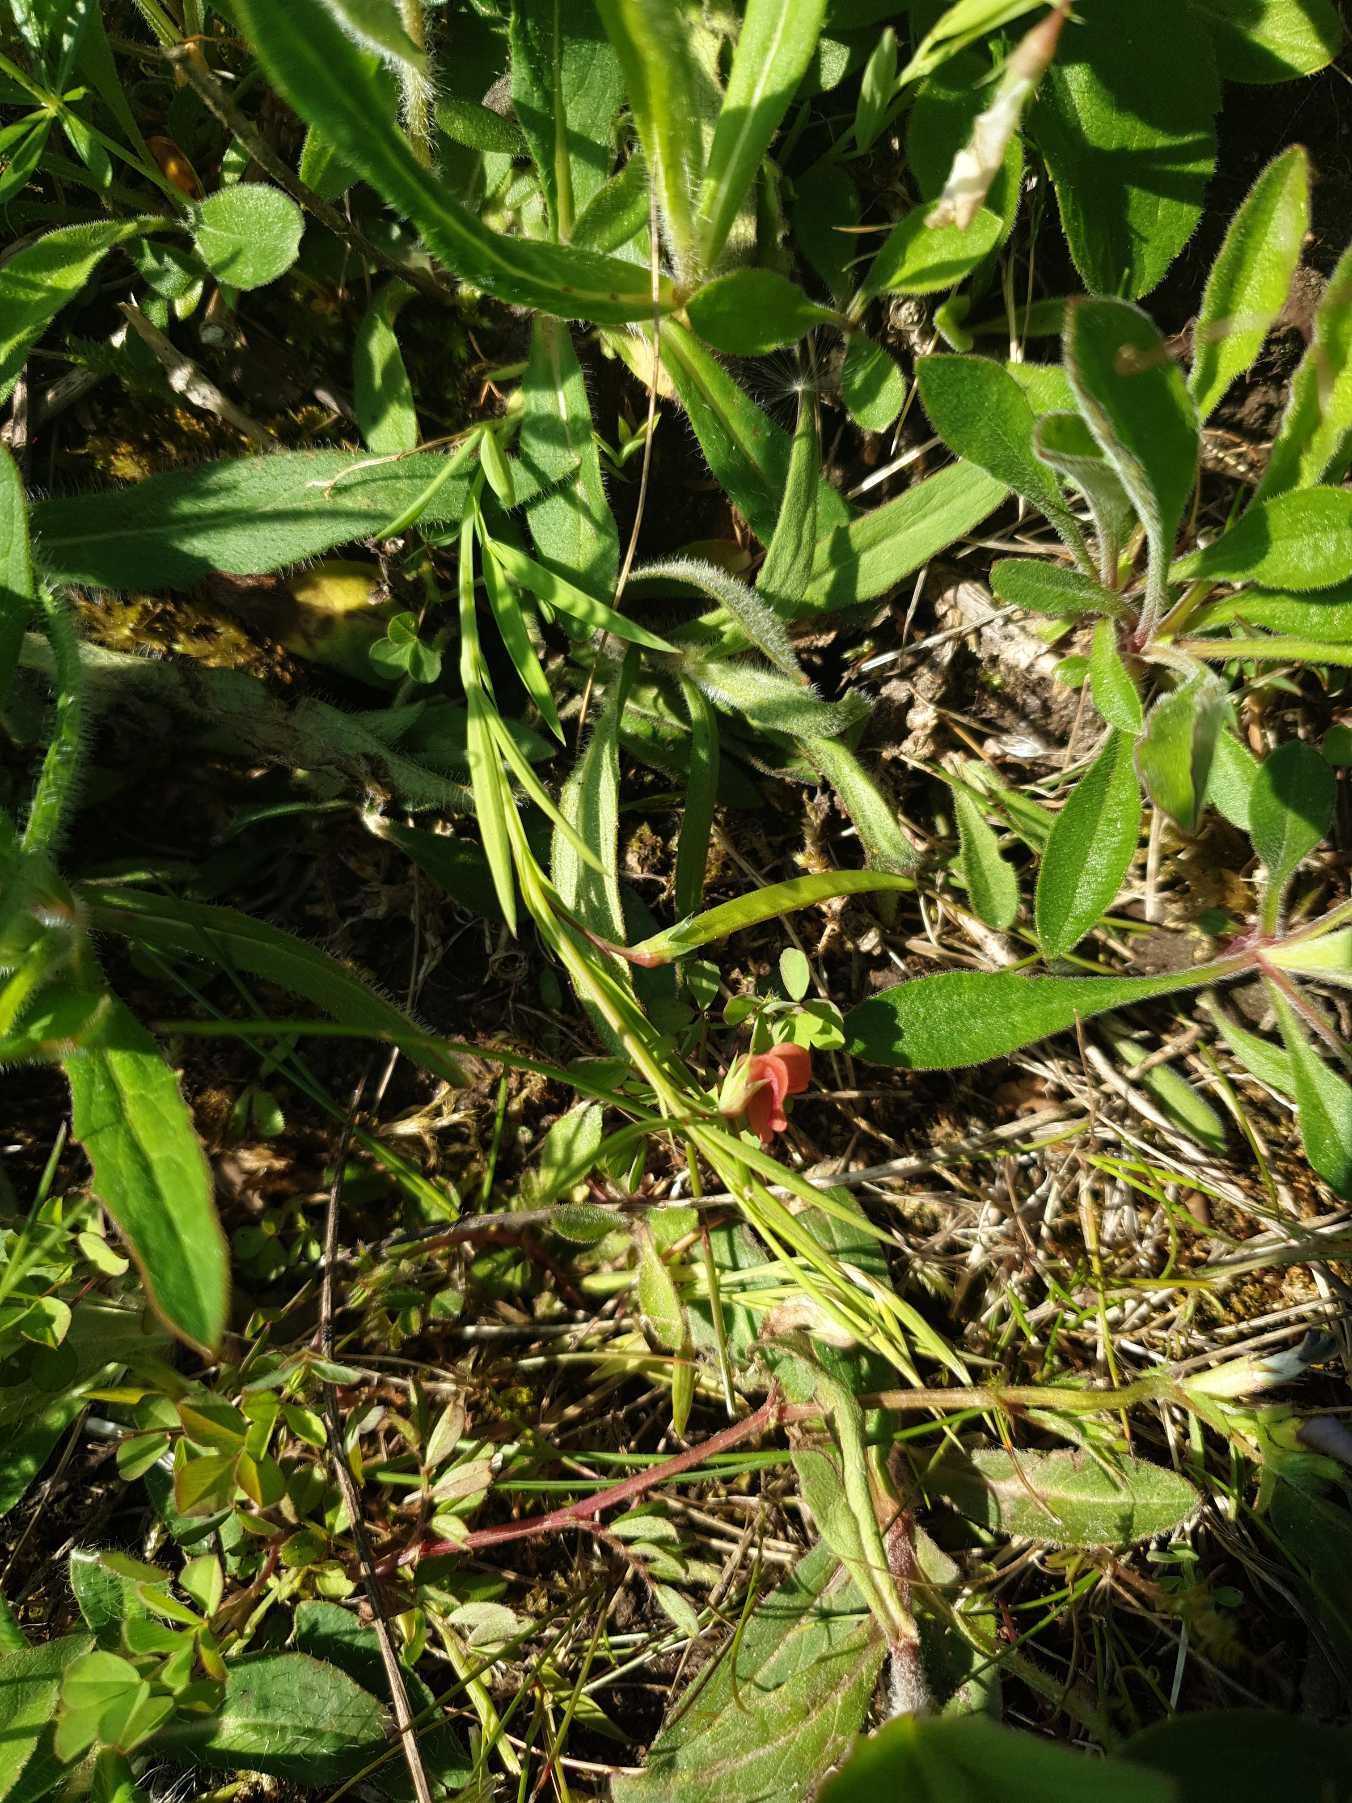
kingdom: Plantae
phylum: Tracheophyta
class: Magnoliopsida
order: Fabales
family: Fabaceae
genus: Lathyrus
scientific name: Lathyrus sphaericus
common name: Enblomstret fladbælg
